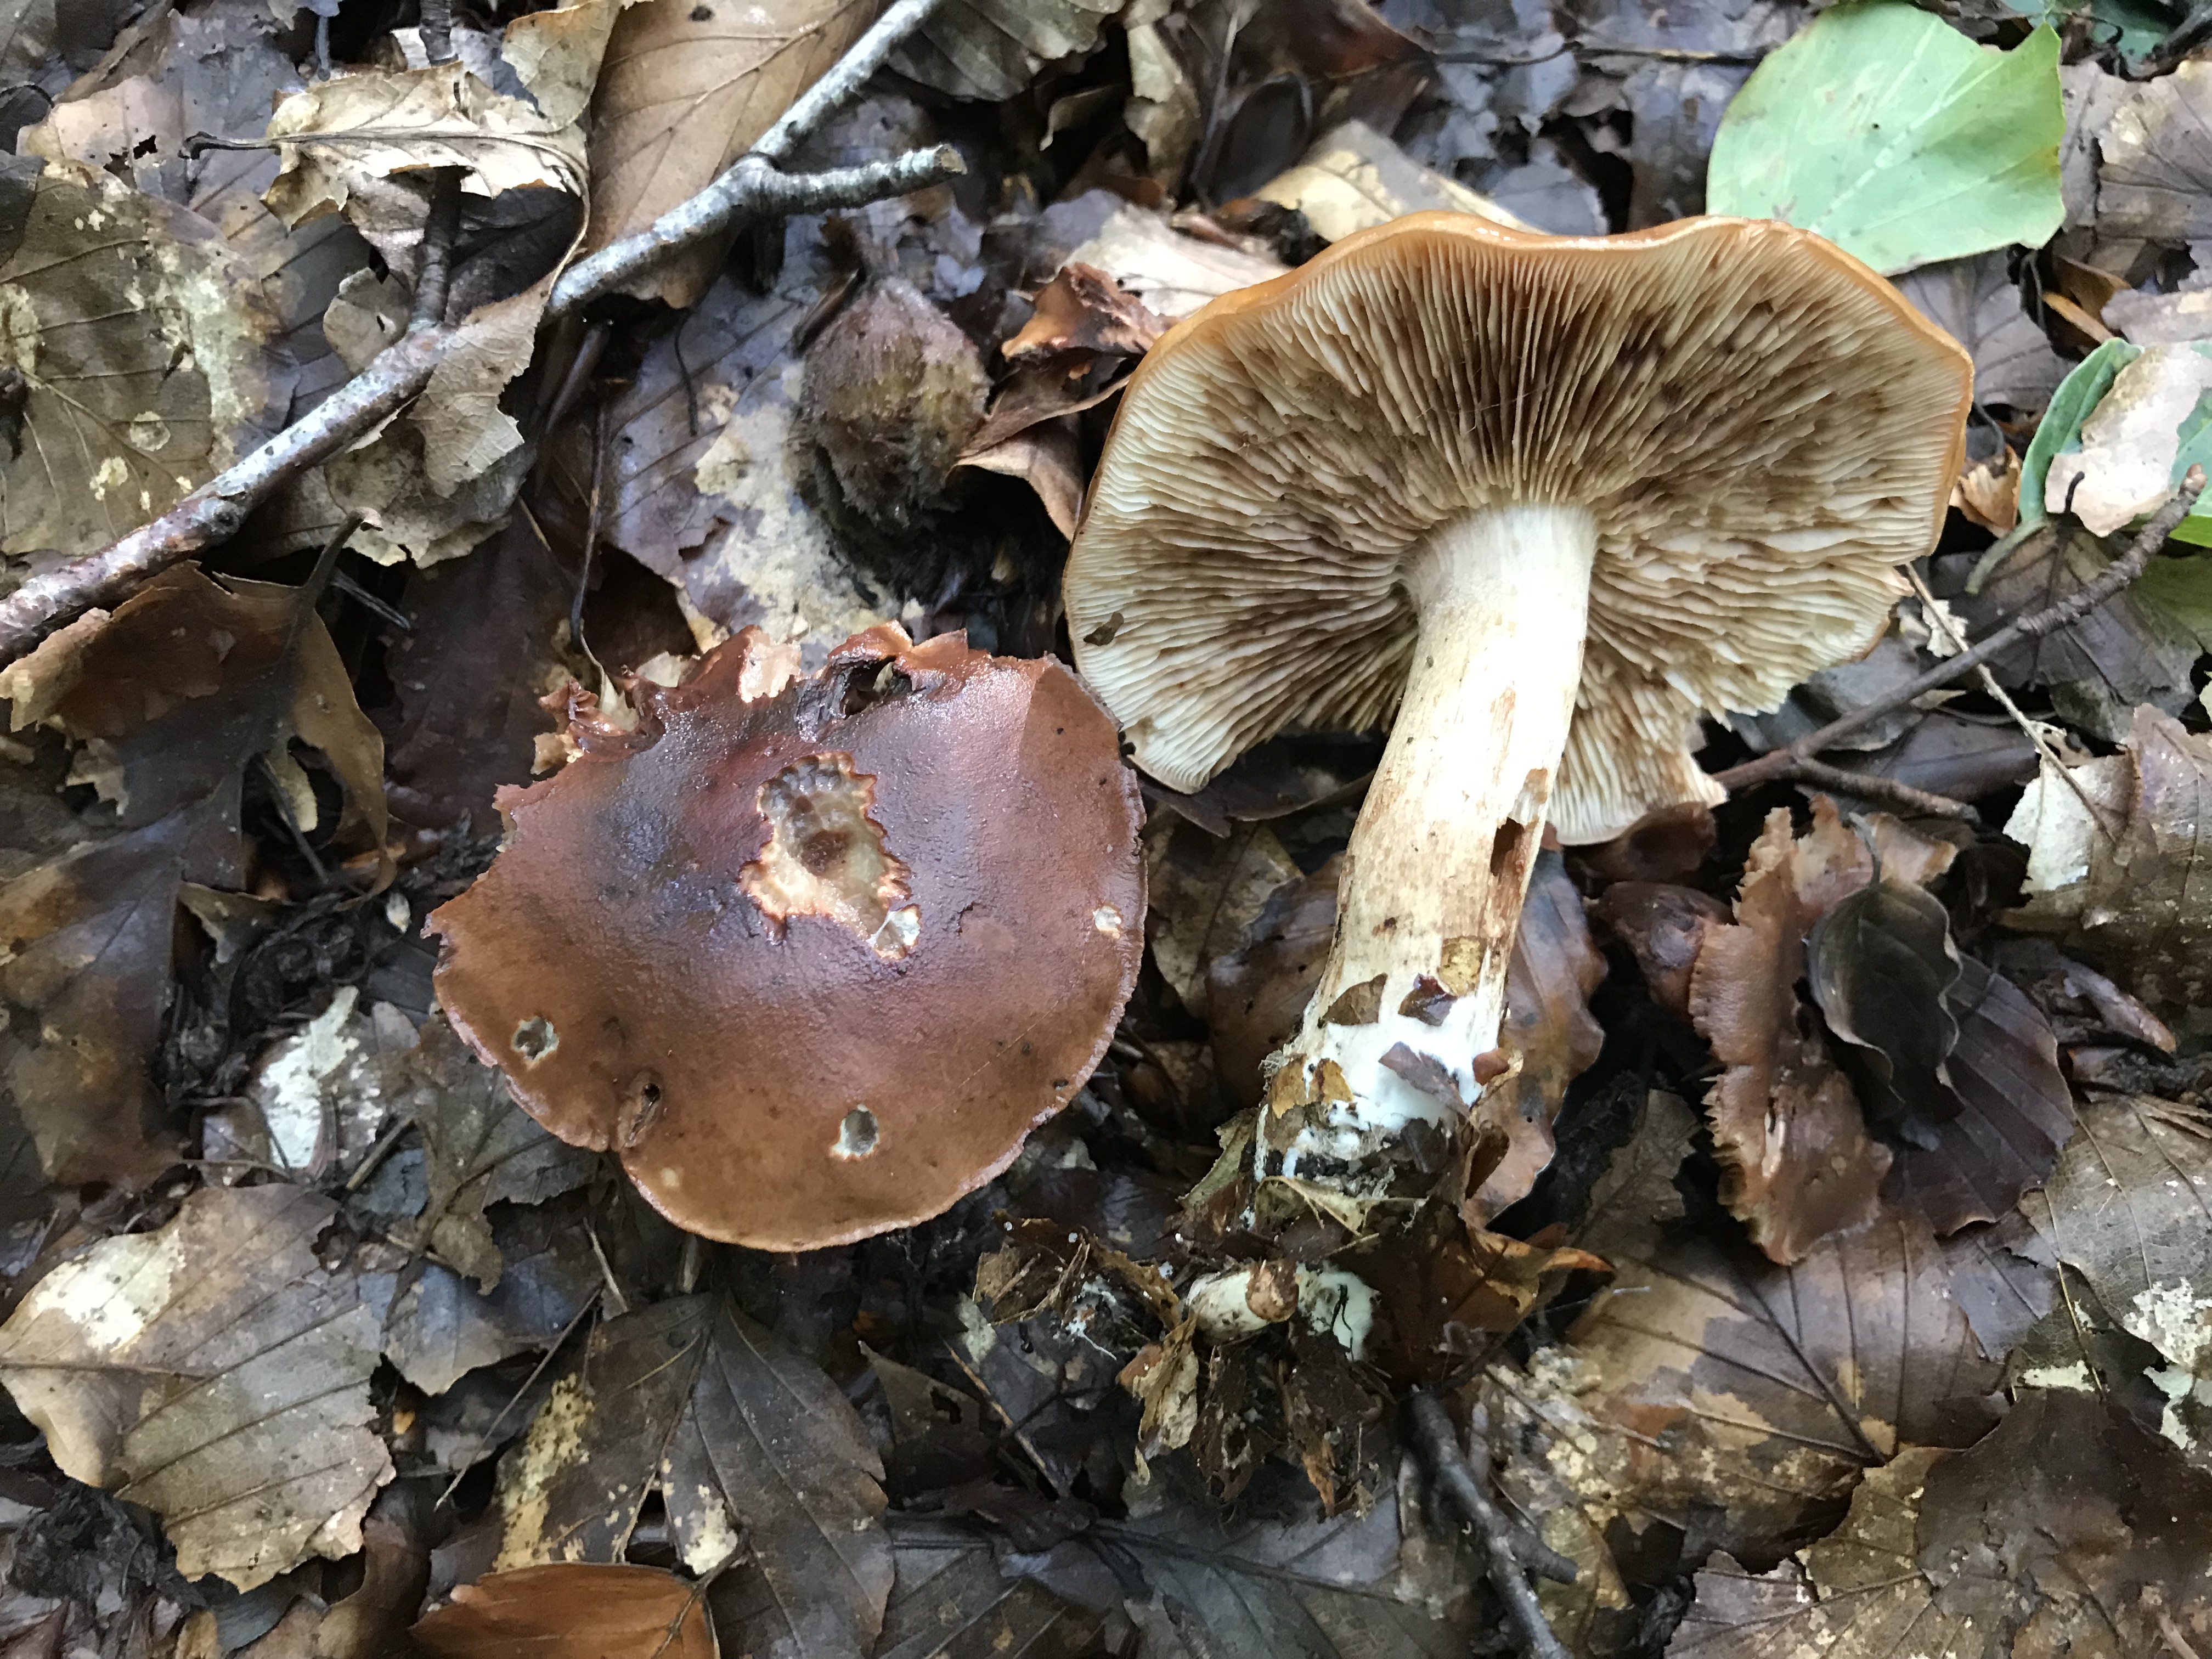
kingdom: Fungi
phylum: Basidiomycota
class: Agaricomycetes
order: Agaricales
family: Tricholomataceae
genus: Tricholoma
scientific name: Tricholoma ustale
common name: sveden ridderhat
